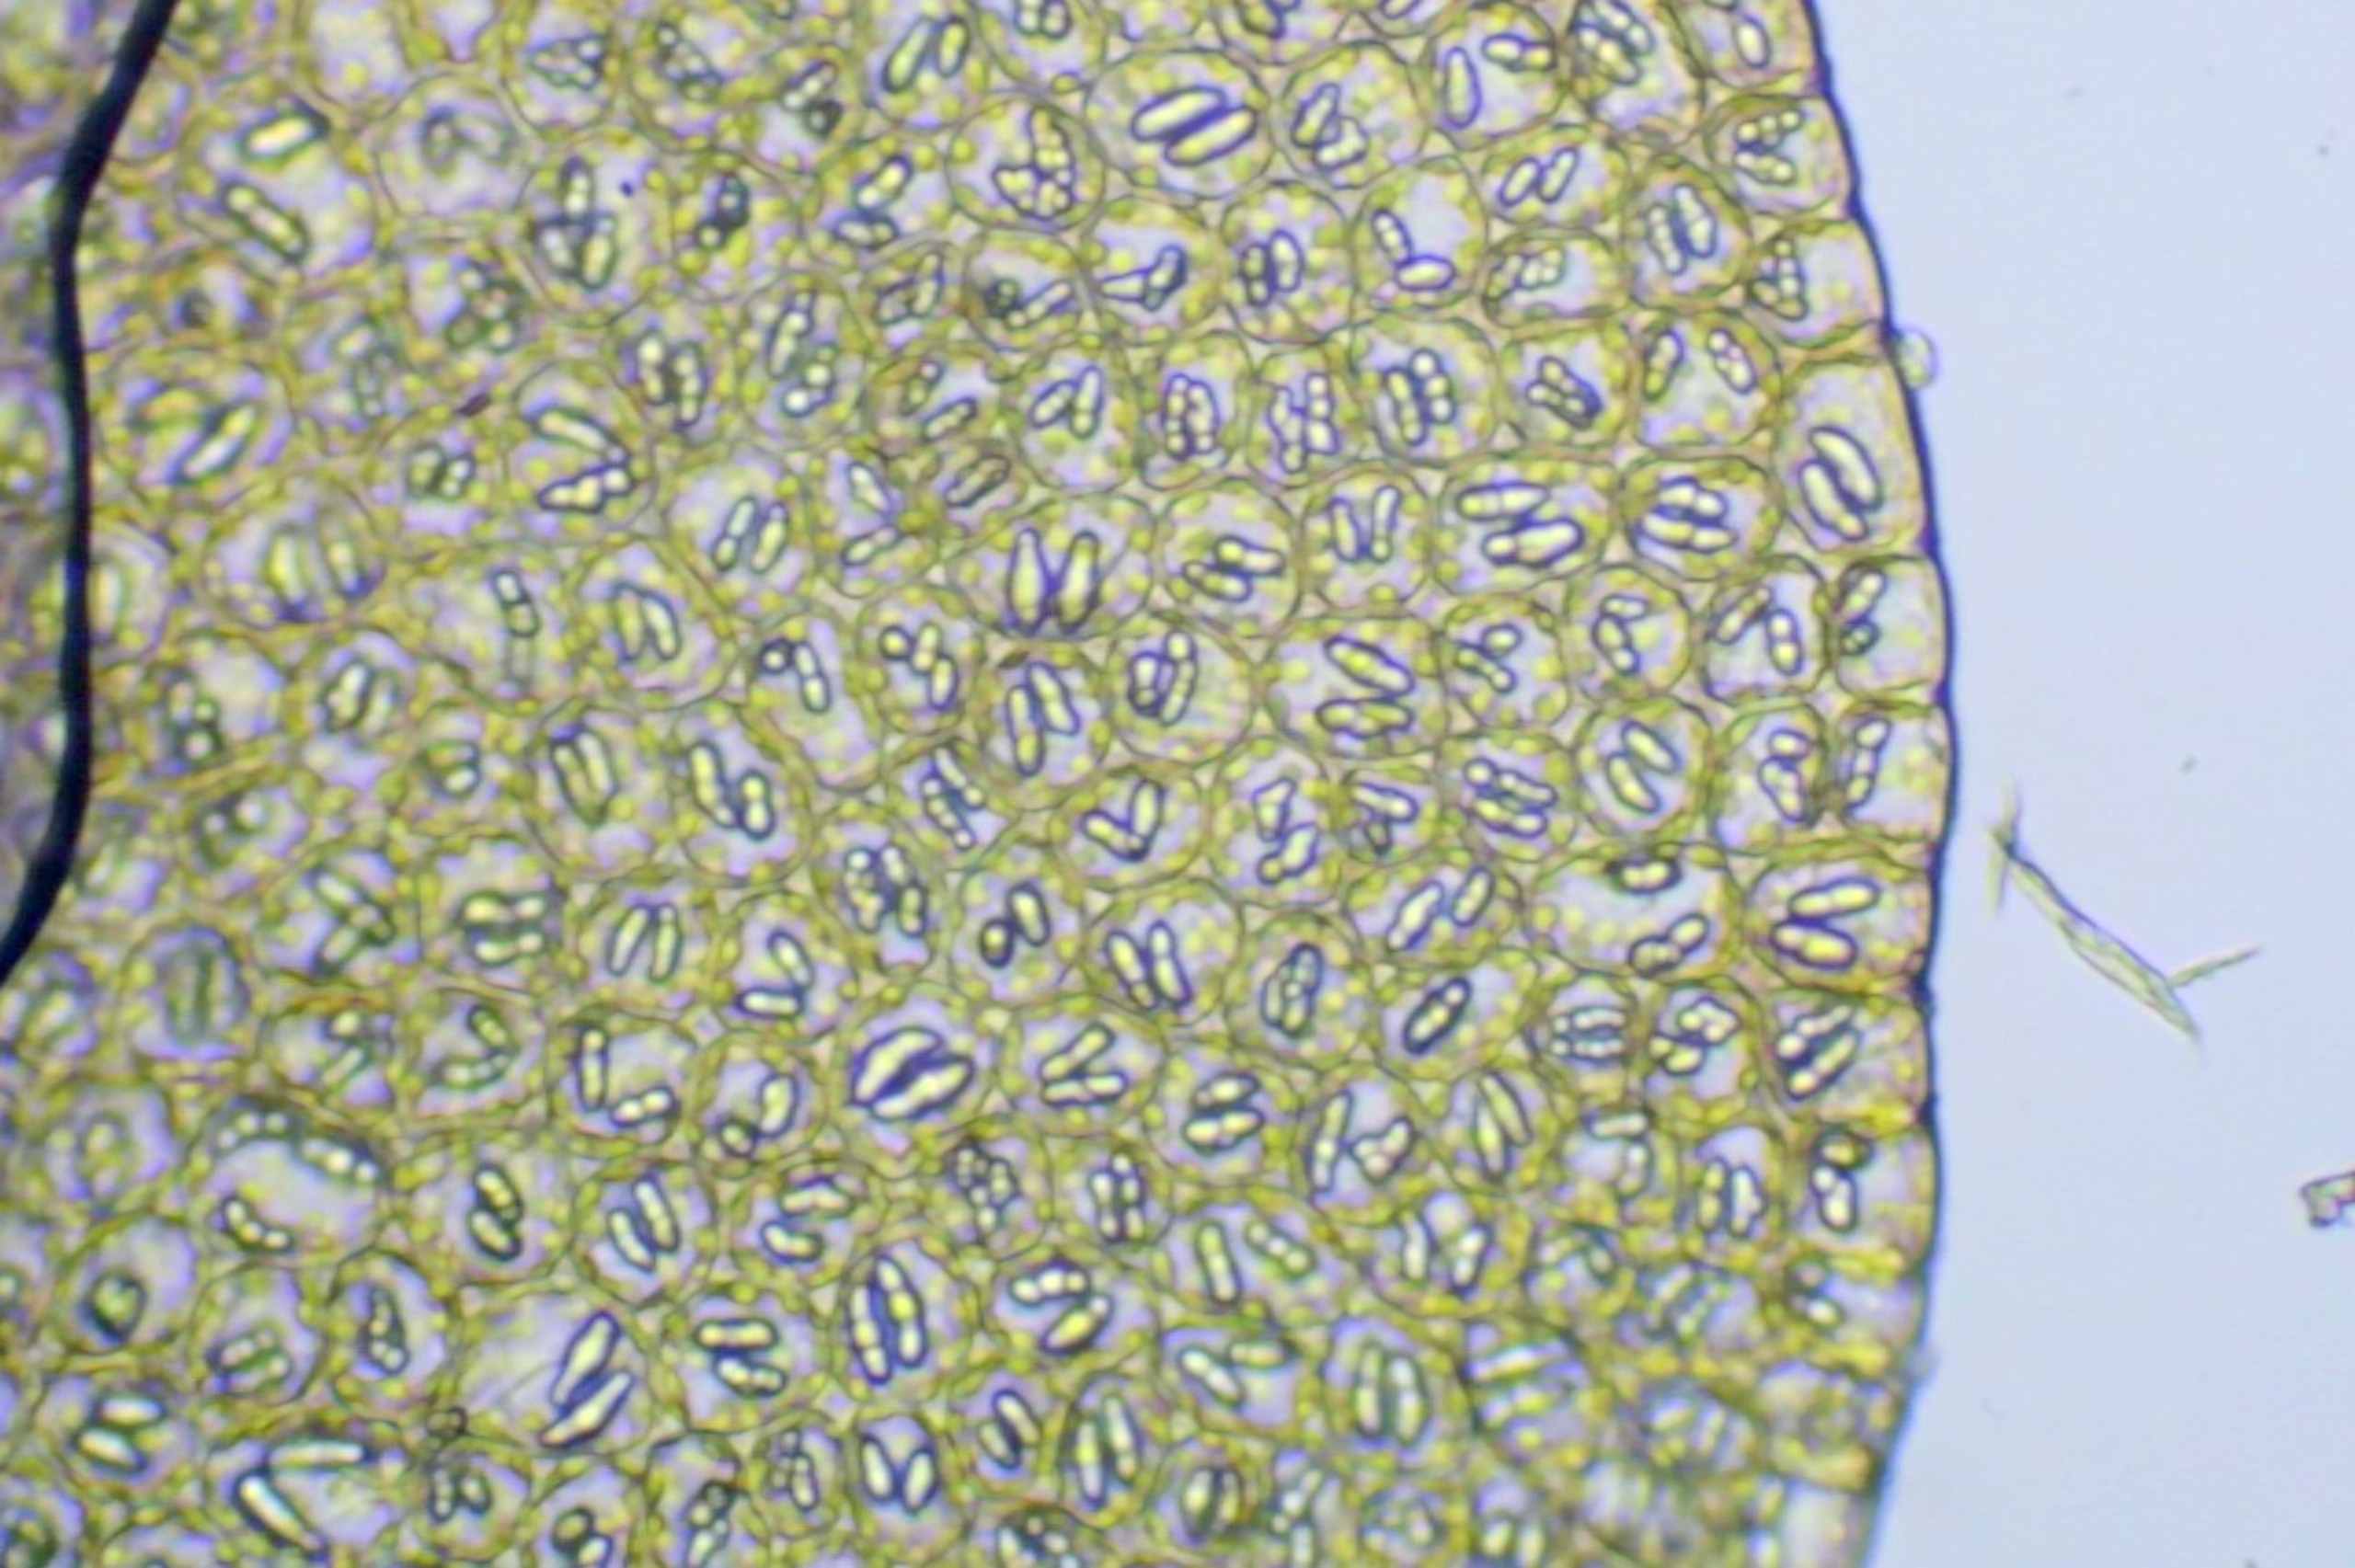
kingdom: Plantae
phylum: Marchantiophyta
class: Jungermanniopsida
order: Jungermanniales
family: Gymnomitriaceae
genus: Nardia
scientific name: Nardia scalaris
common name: Tæt kappesvøb
